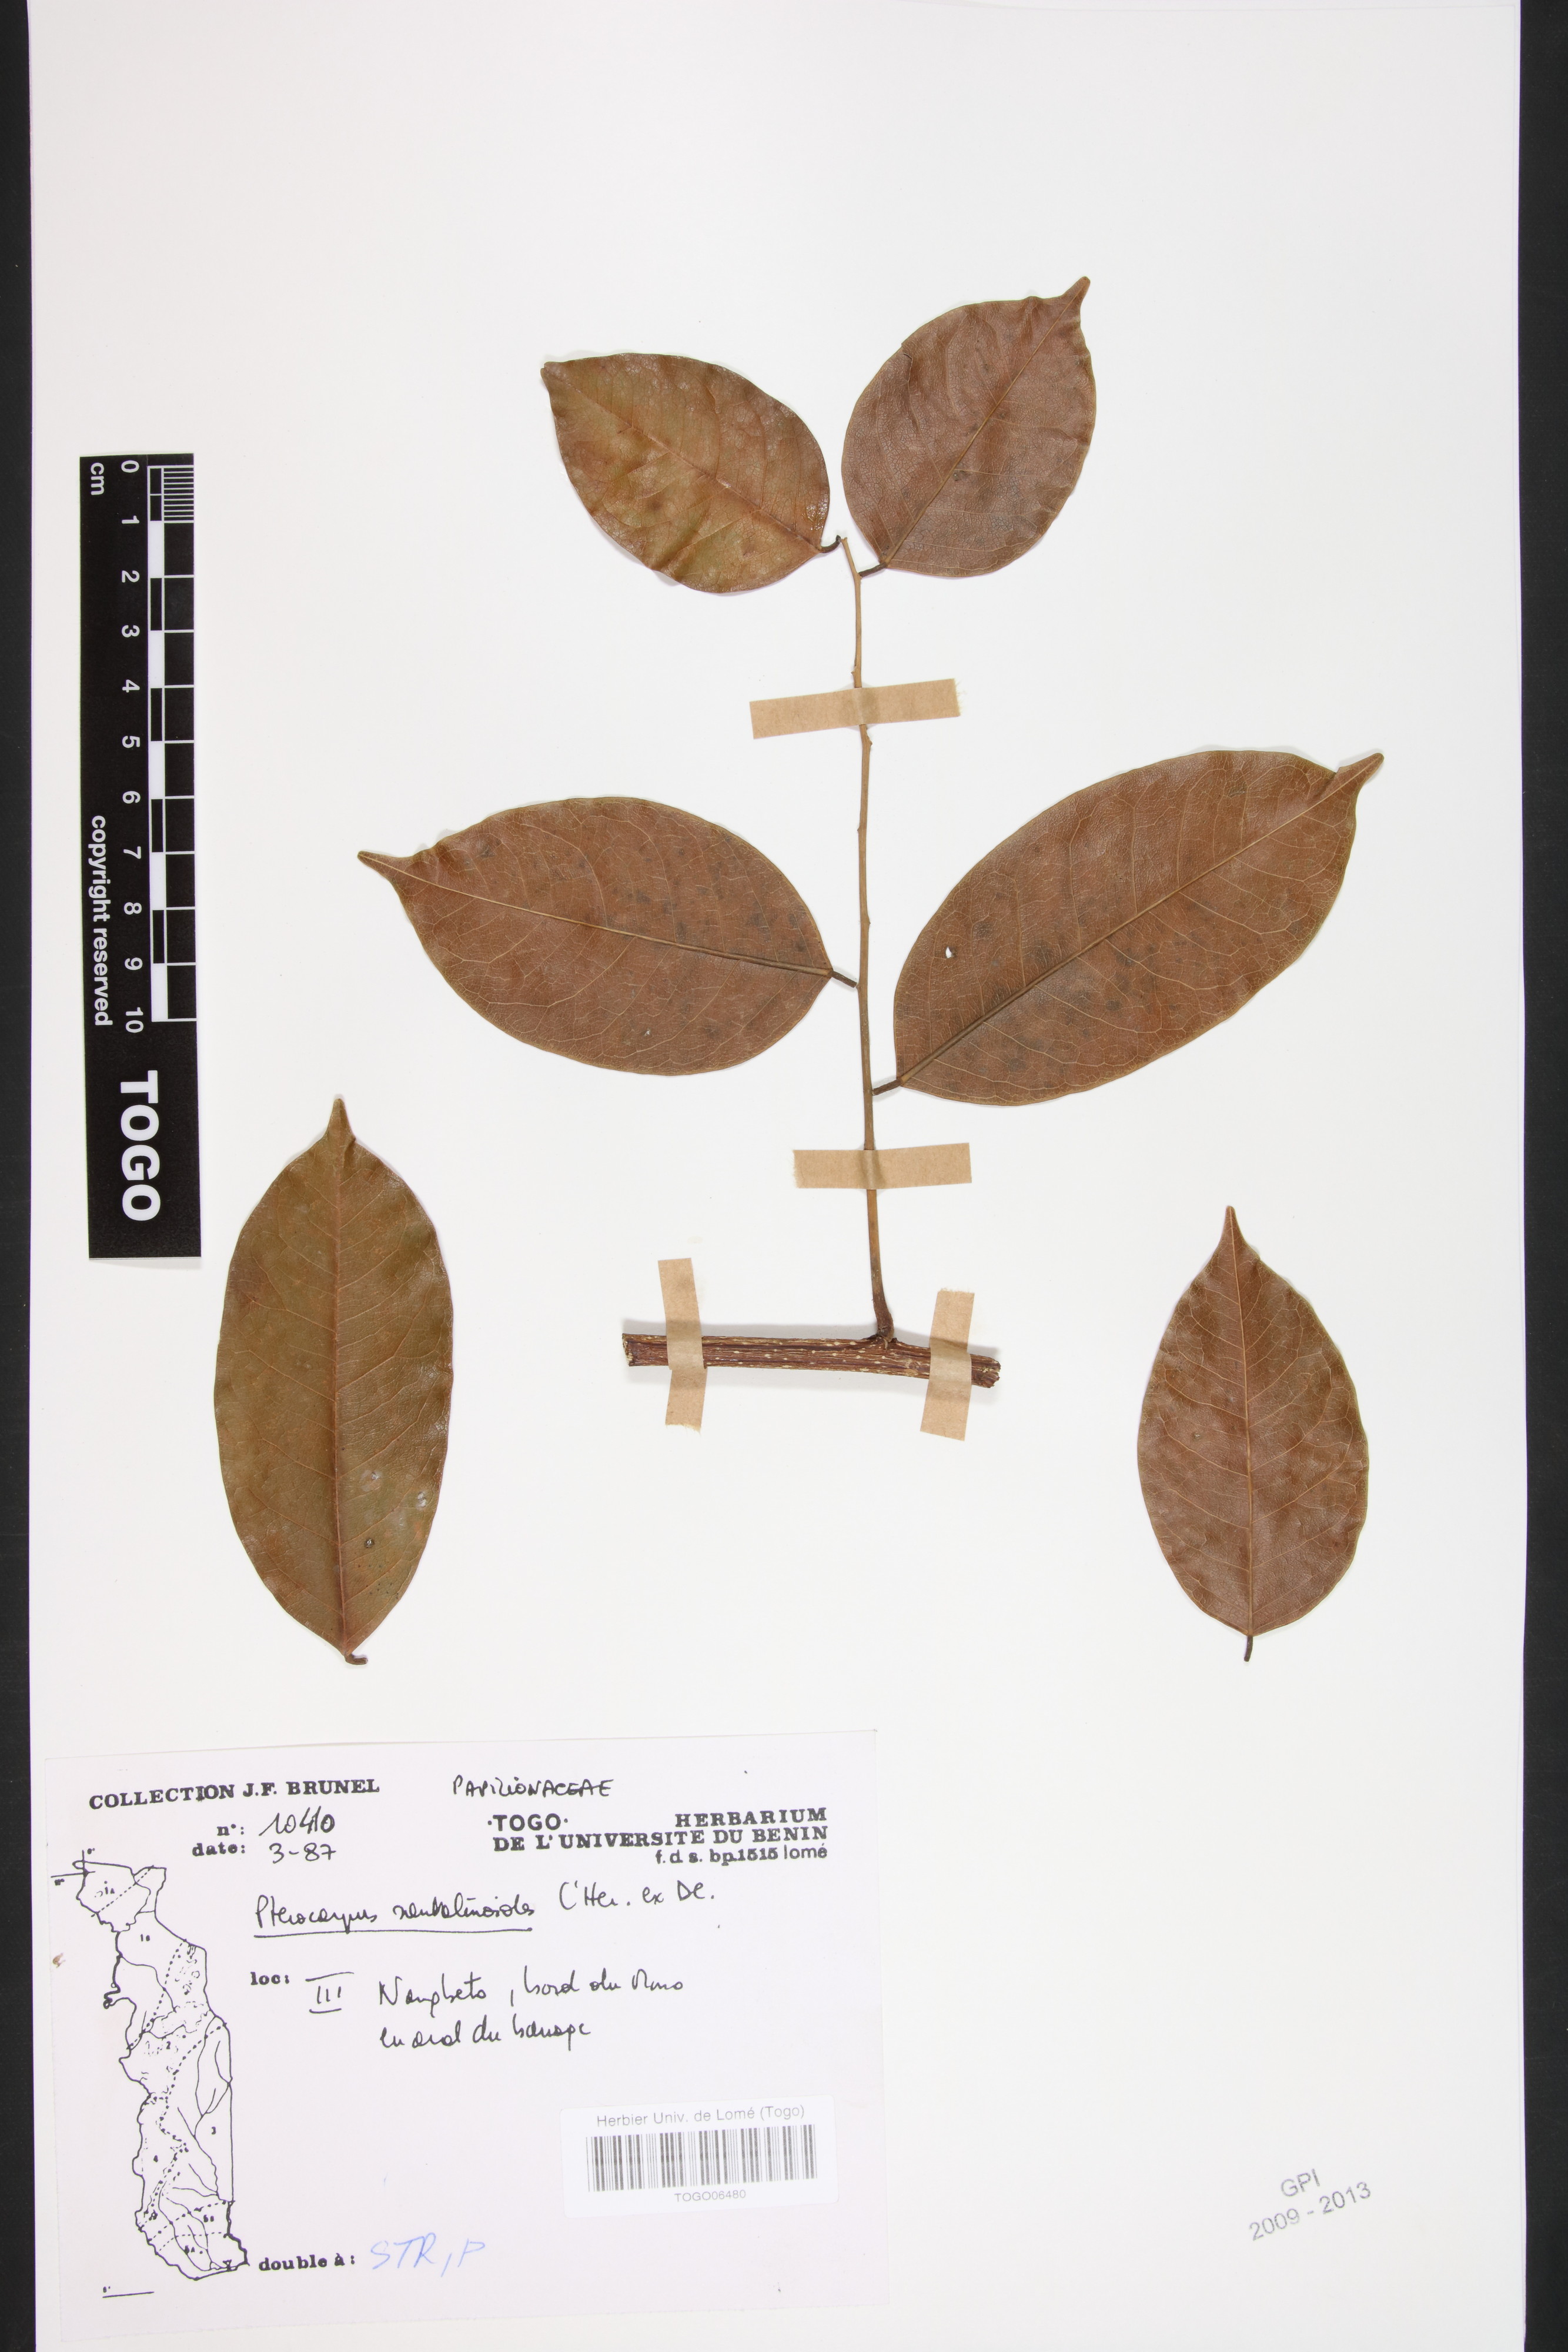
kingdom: Plantae
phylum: Tracheophyta
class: Magnoliopsida
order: Fabales
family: Fabaceae
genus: Pterocarpus
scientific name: Pterocarpus santalinoides
